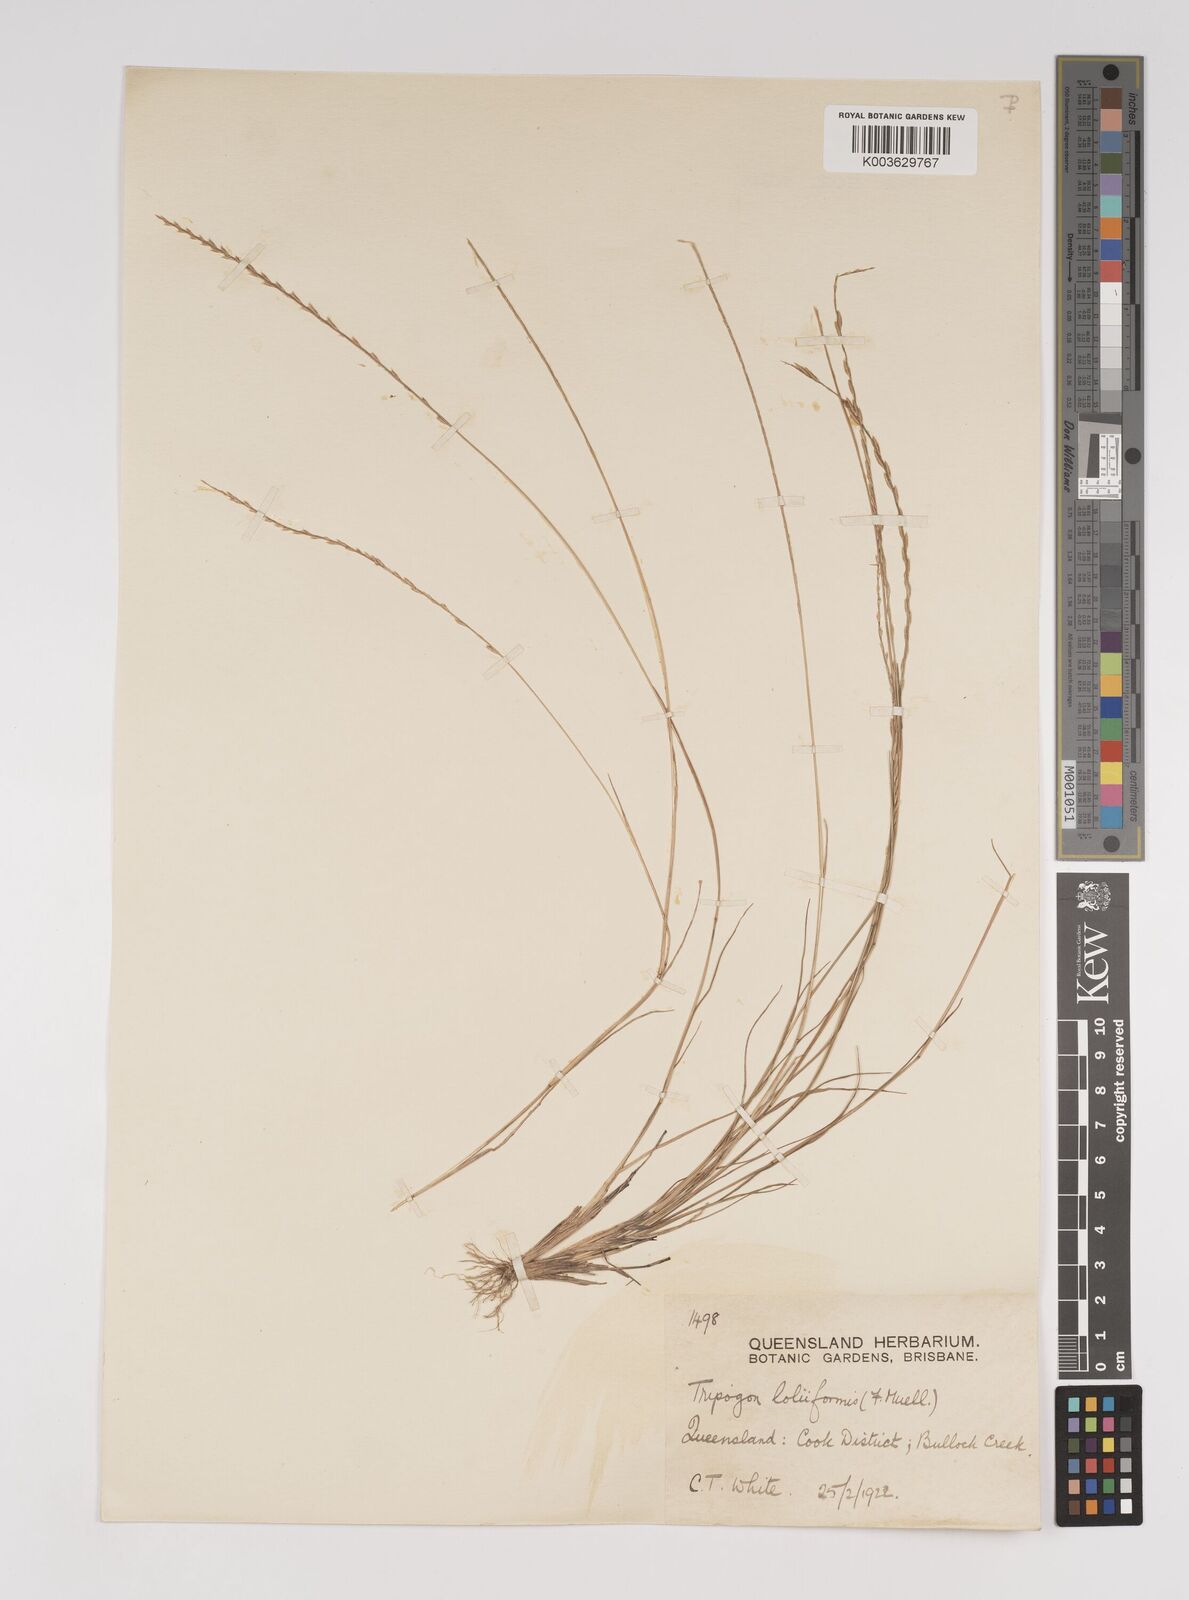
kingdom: Plantae
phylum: Tracheophyta
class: Liliopsida
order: Poales
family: Poaceae
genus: Tripogonella
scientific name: Tripogonella loliiformis
